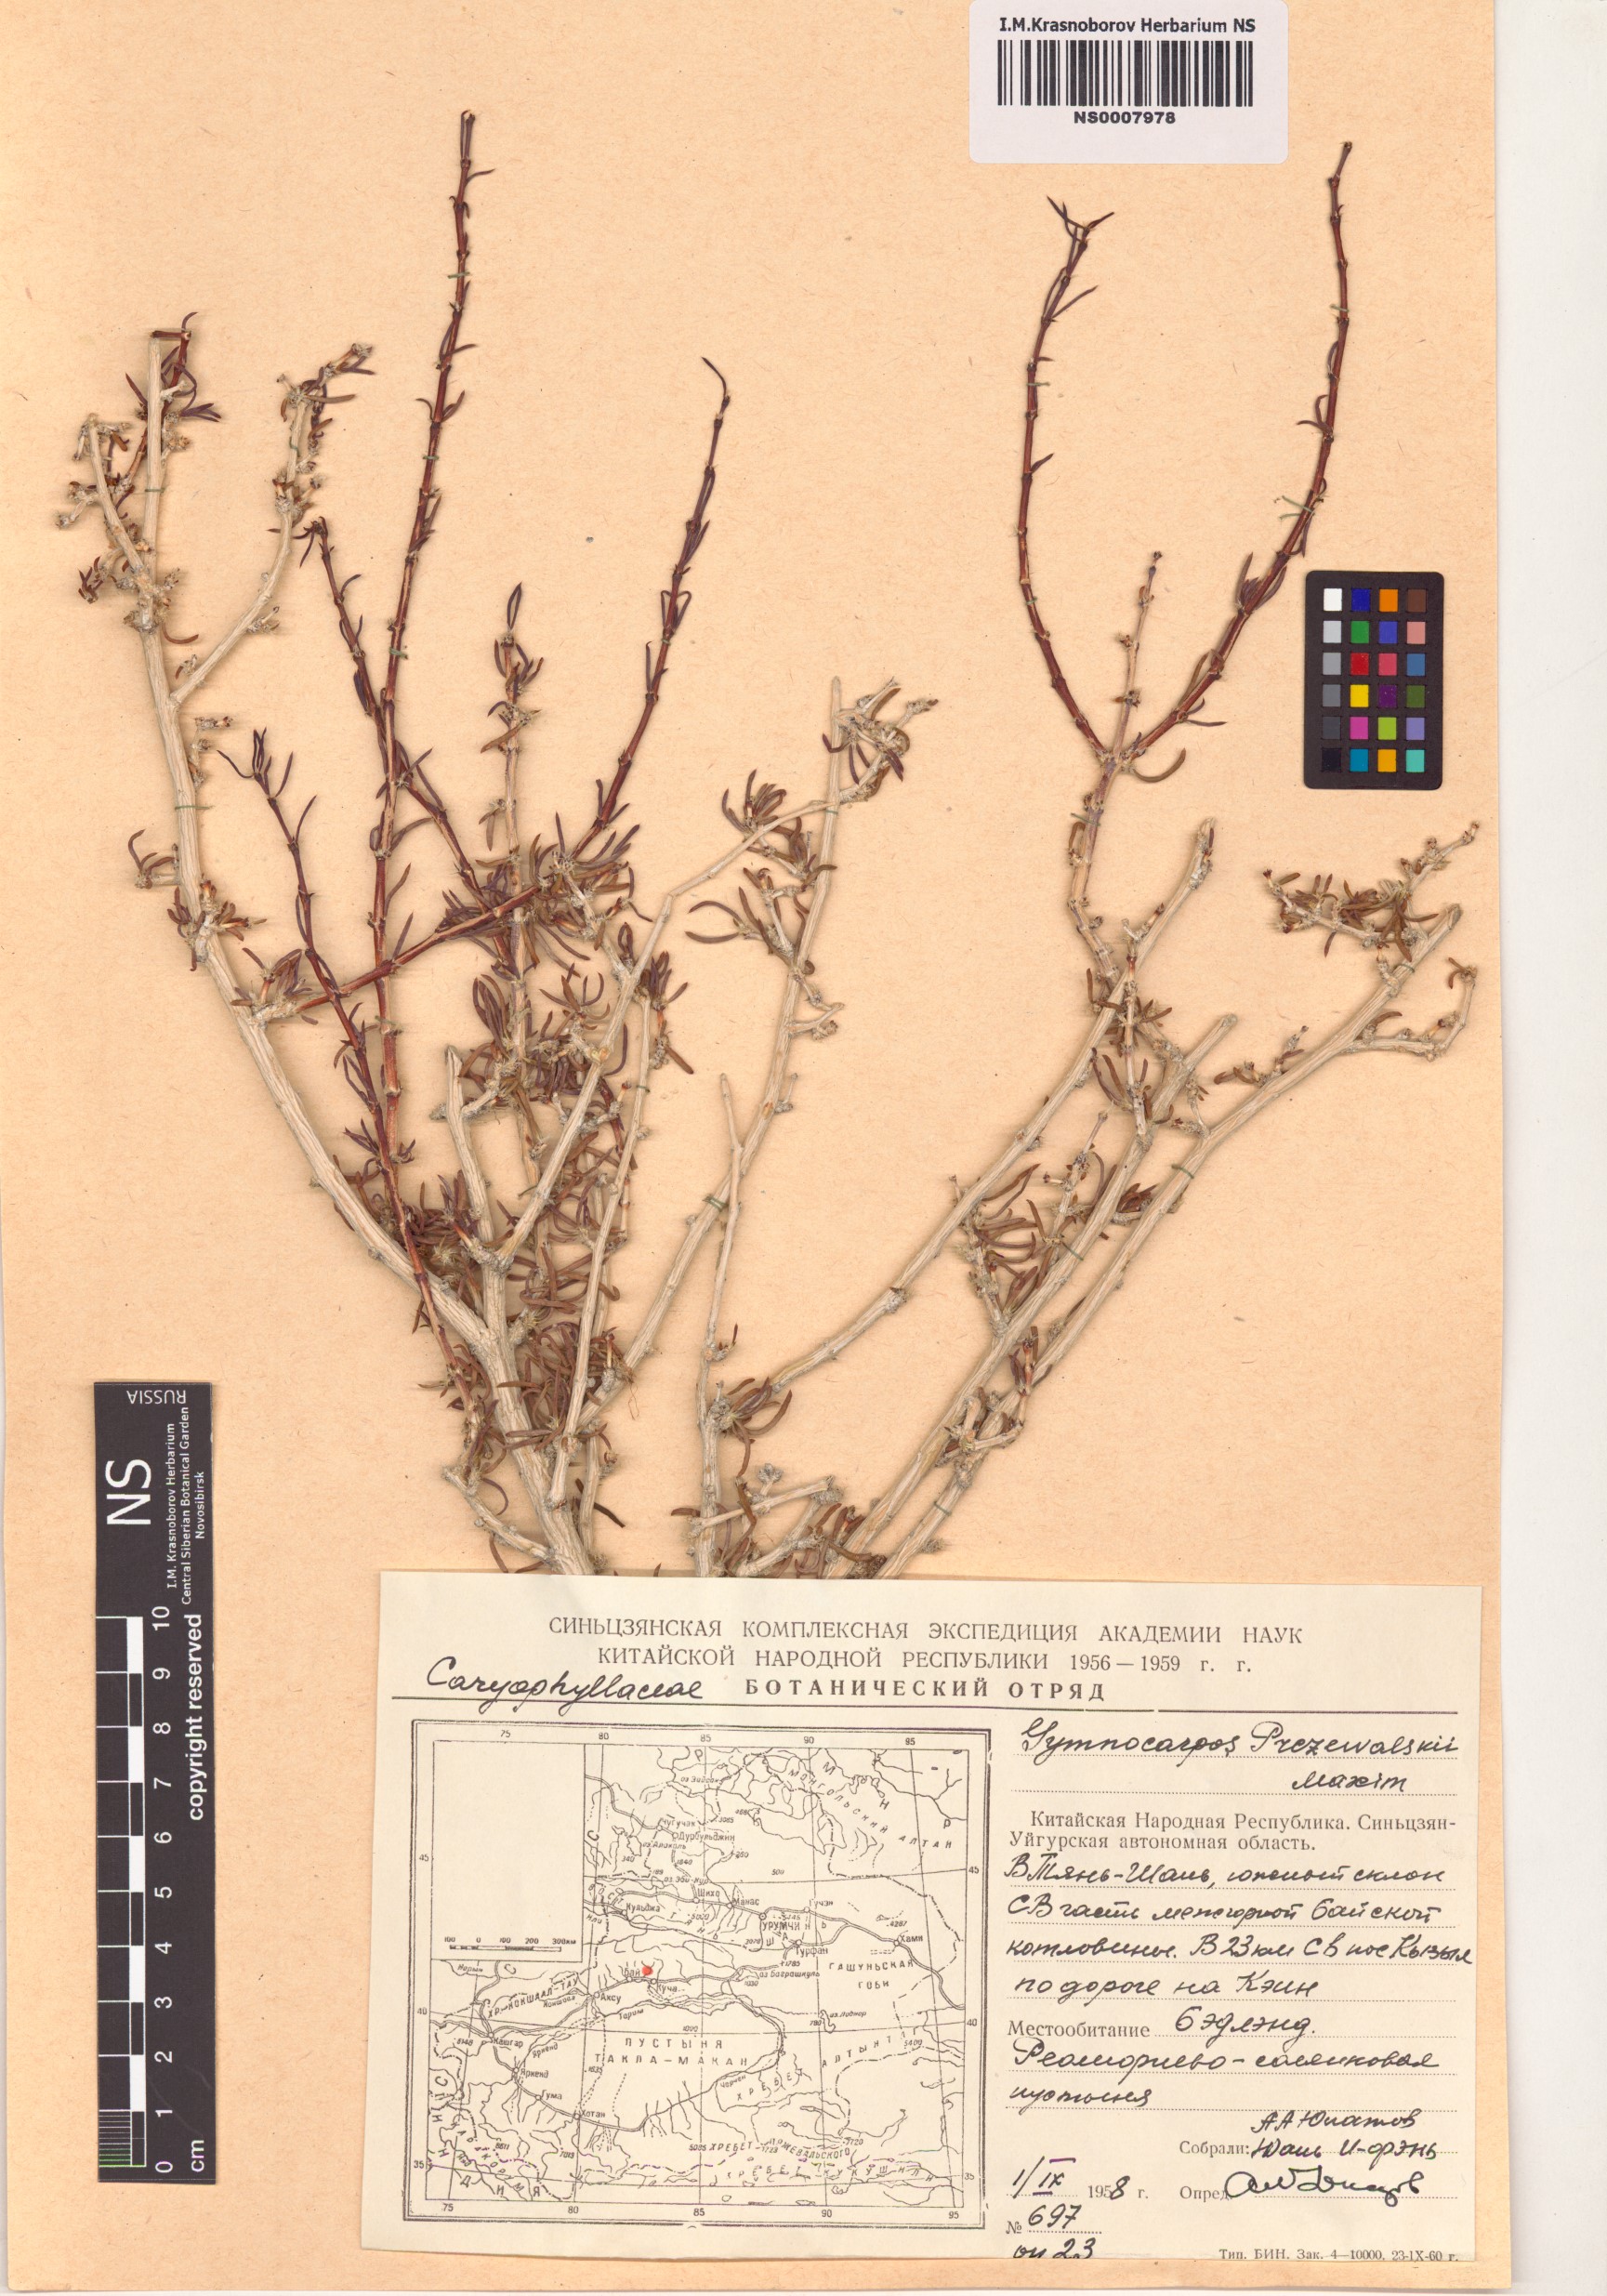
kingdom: Plantae
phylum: Tracheophyta
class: Magnoliopsida
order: Caryophyllales
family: Caryophyllaceae
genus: Gymnocarpos
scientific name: Gymnocarpos przewalskii
